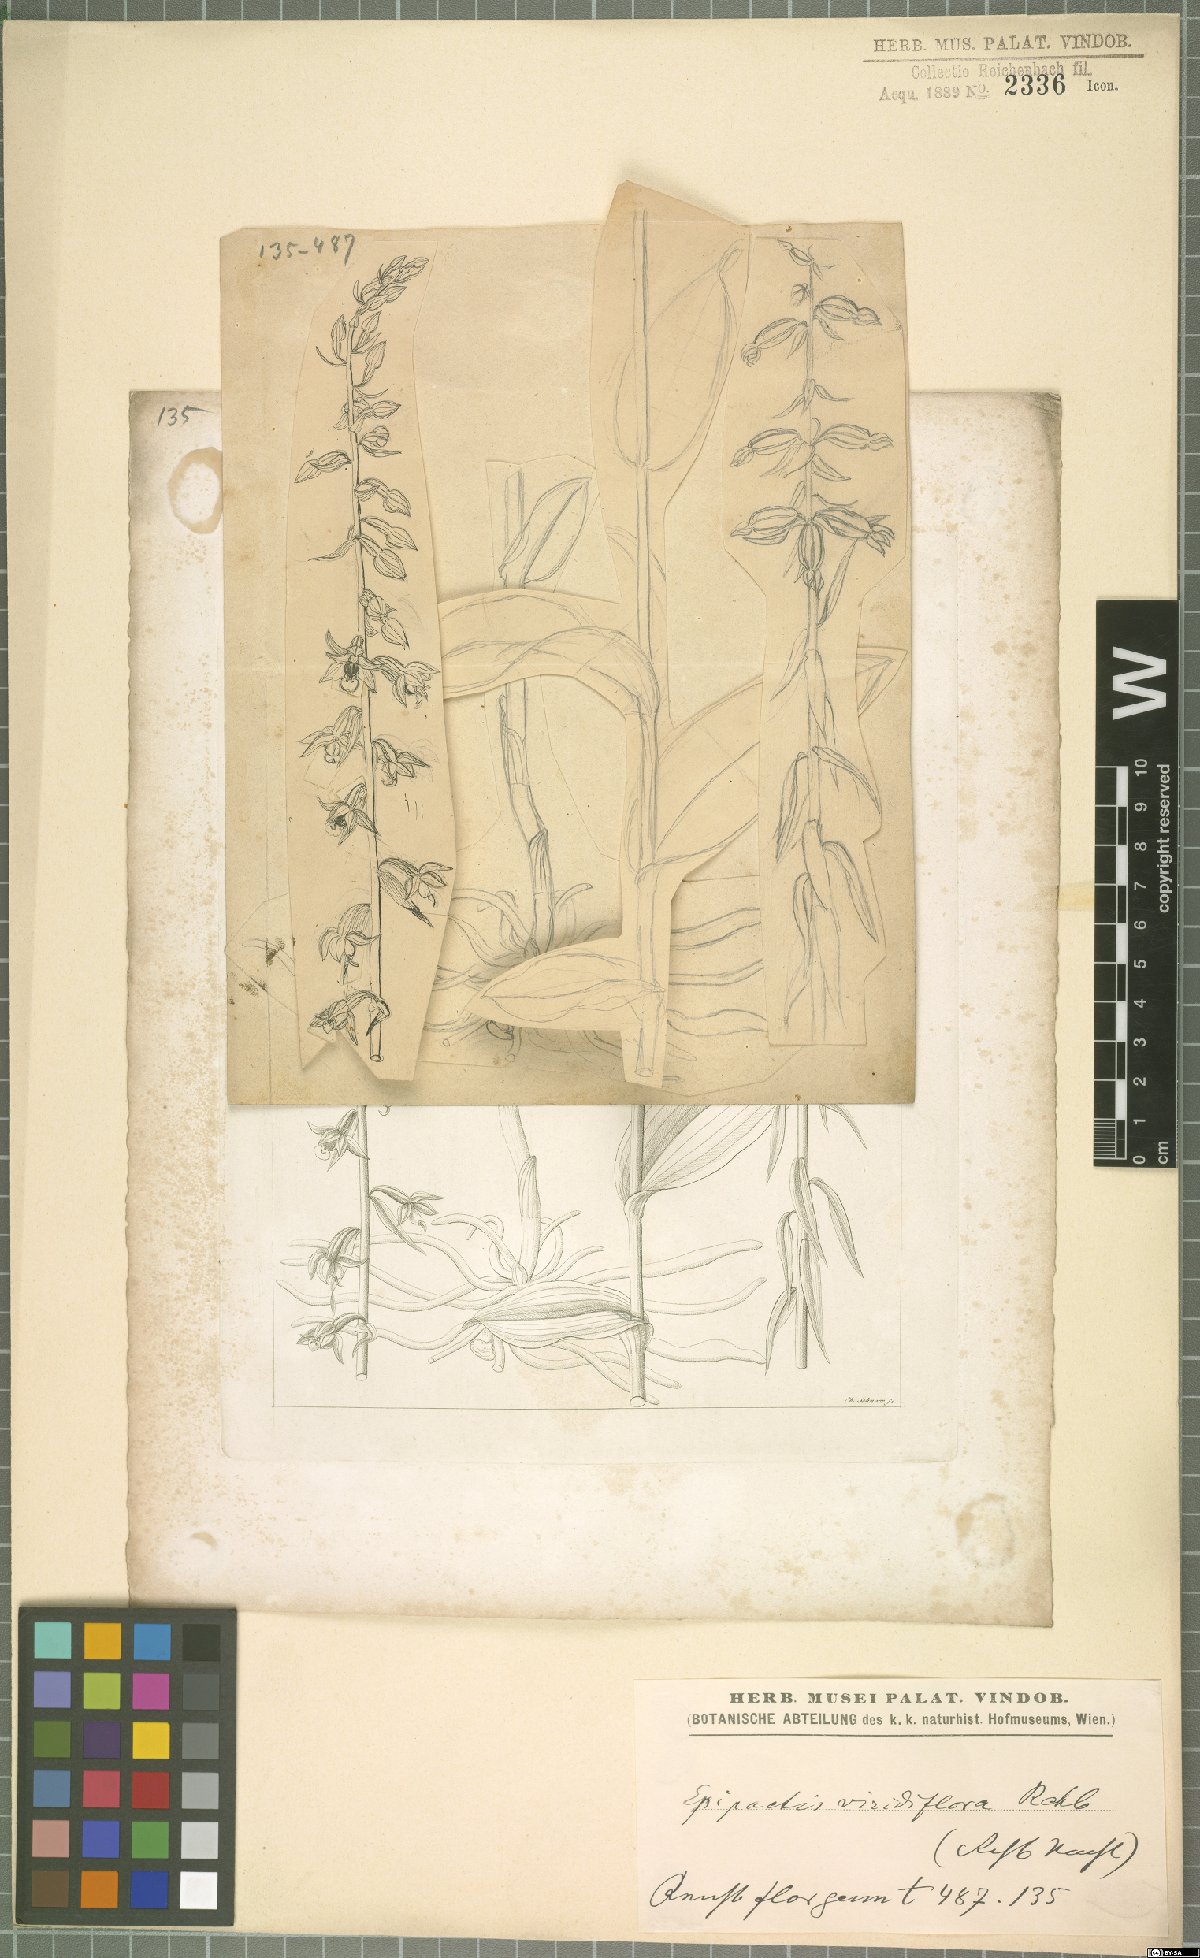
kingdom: Plantae
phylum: Tracheophyta
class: Liliopsida
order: Asparagales
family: Orchidaceae
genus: Epipactis
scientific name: Epipactis purpurata
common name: Violet helleborine
